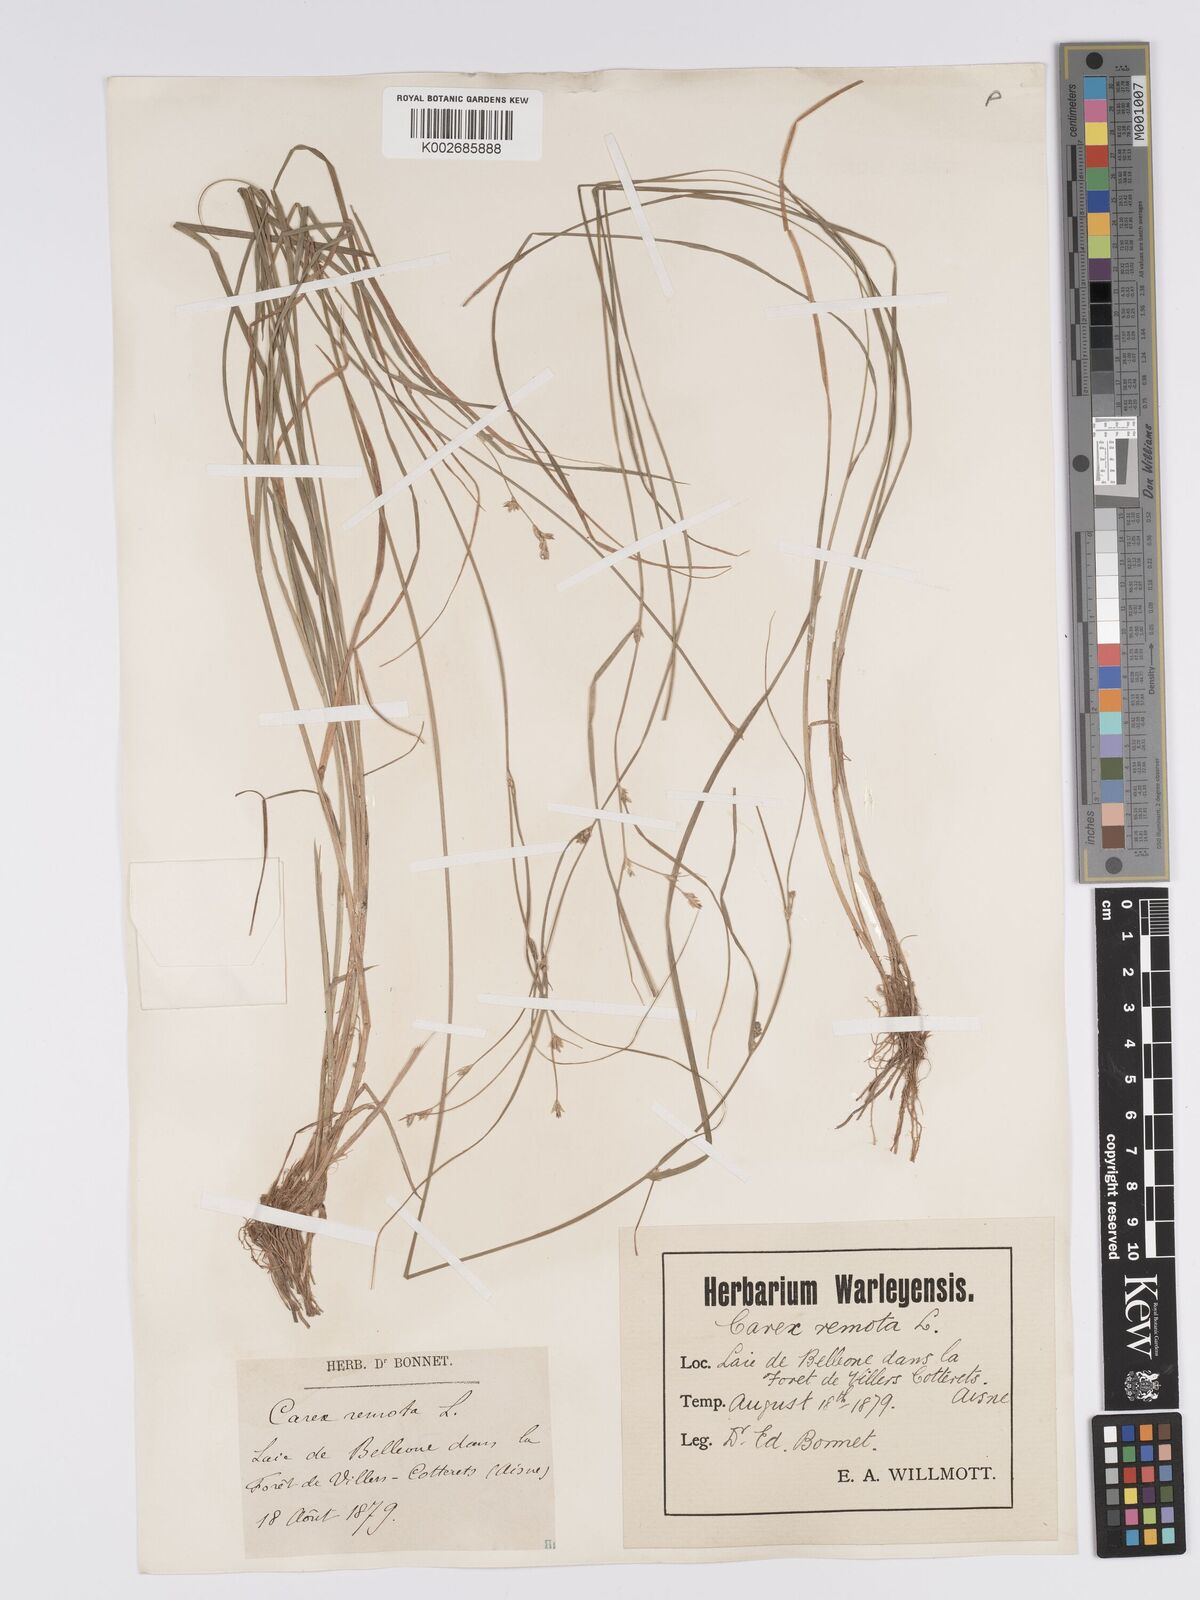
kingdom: Plantae
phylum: Tracheophyta
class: Liliopsida
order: Poales
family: Cyperaceae
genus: Carex
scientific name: Carex remota
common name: Remote sedge
